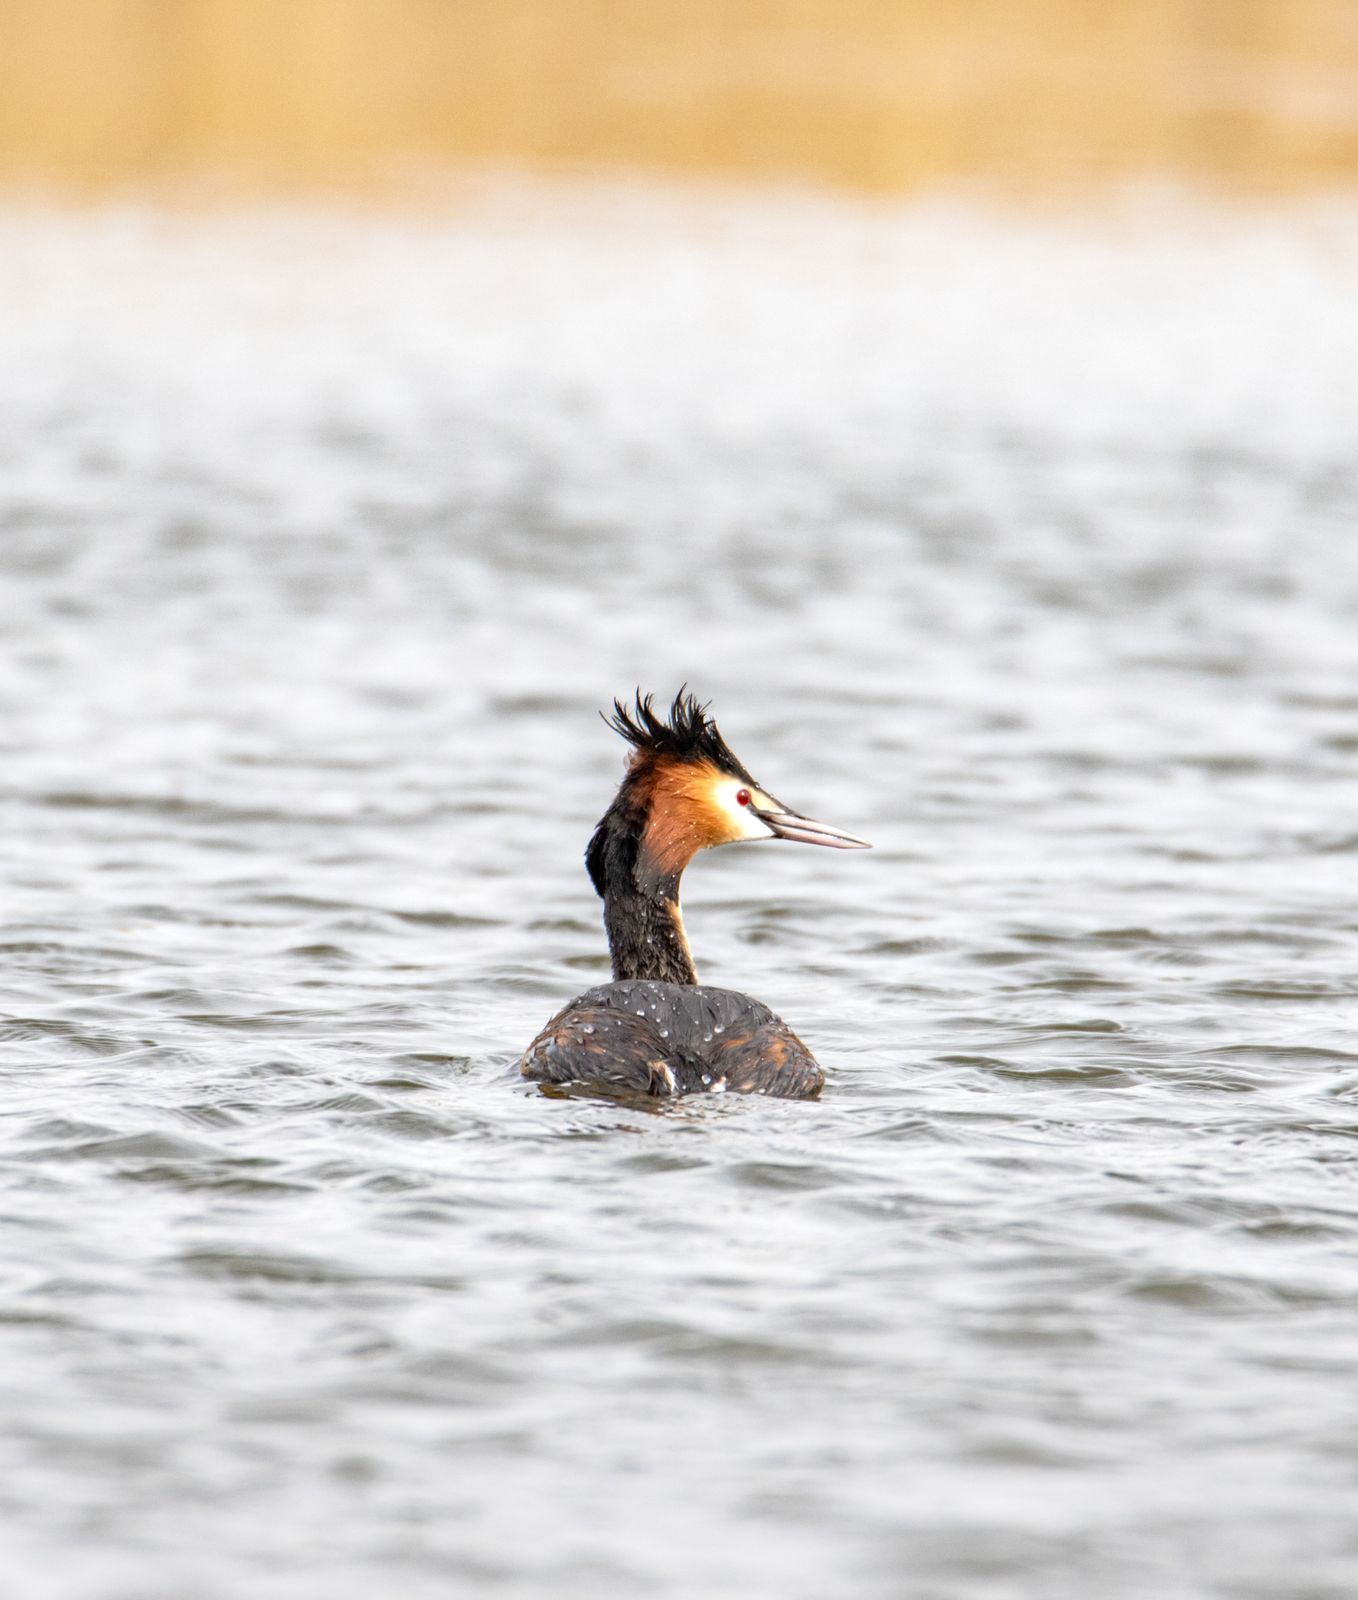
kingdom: Animalia
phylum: Chordata
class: Aves
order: Podicipediformes
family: Podicipedidae
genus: Podiceps
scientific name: Podiceps cristatus
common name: Great crested grebe
